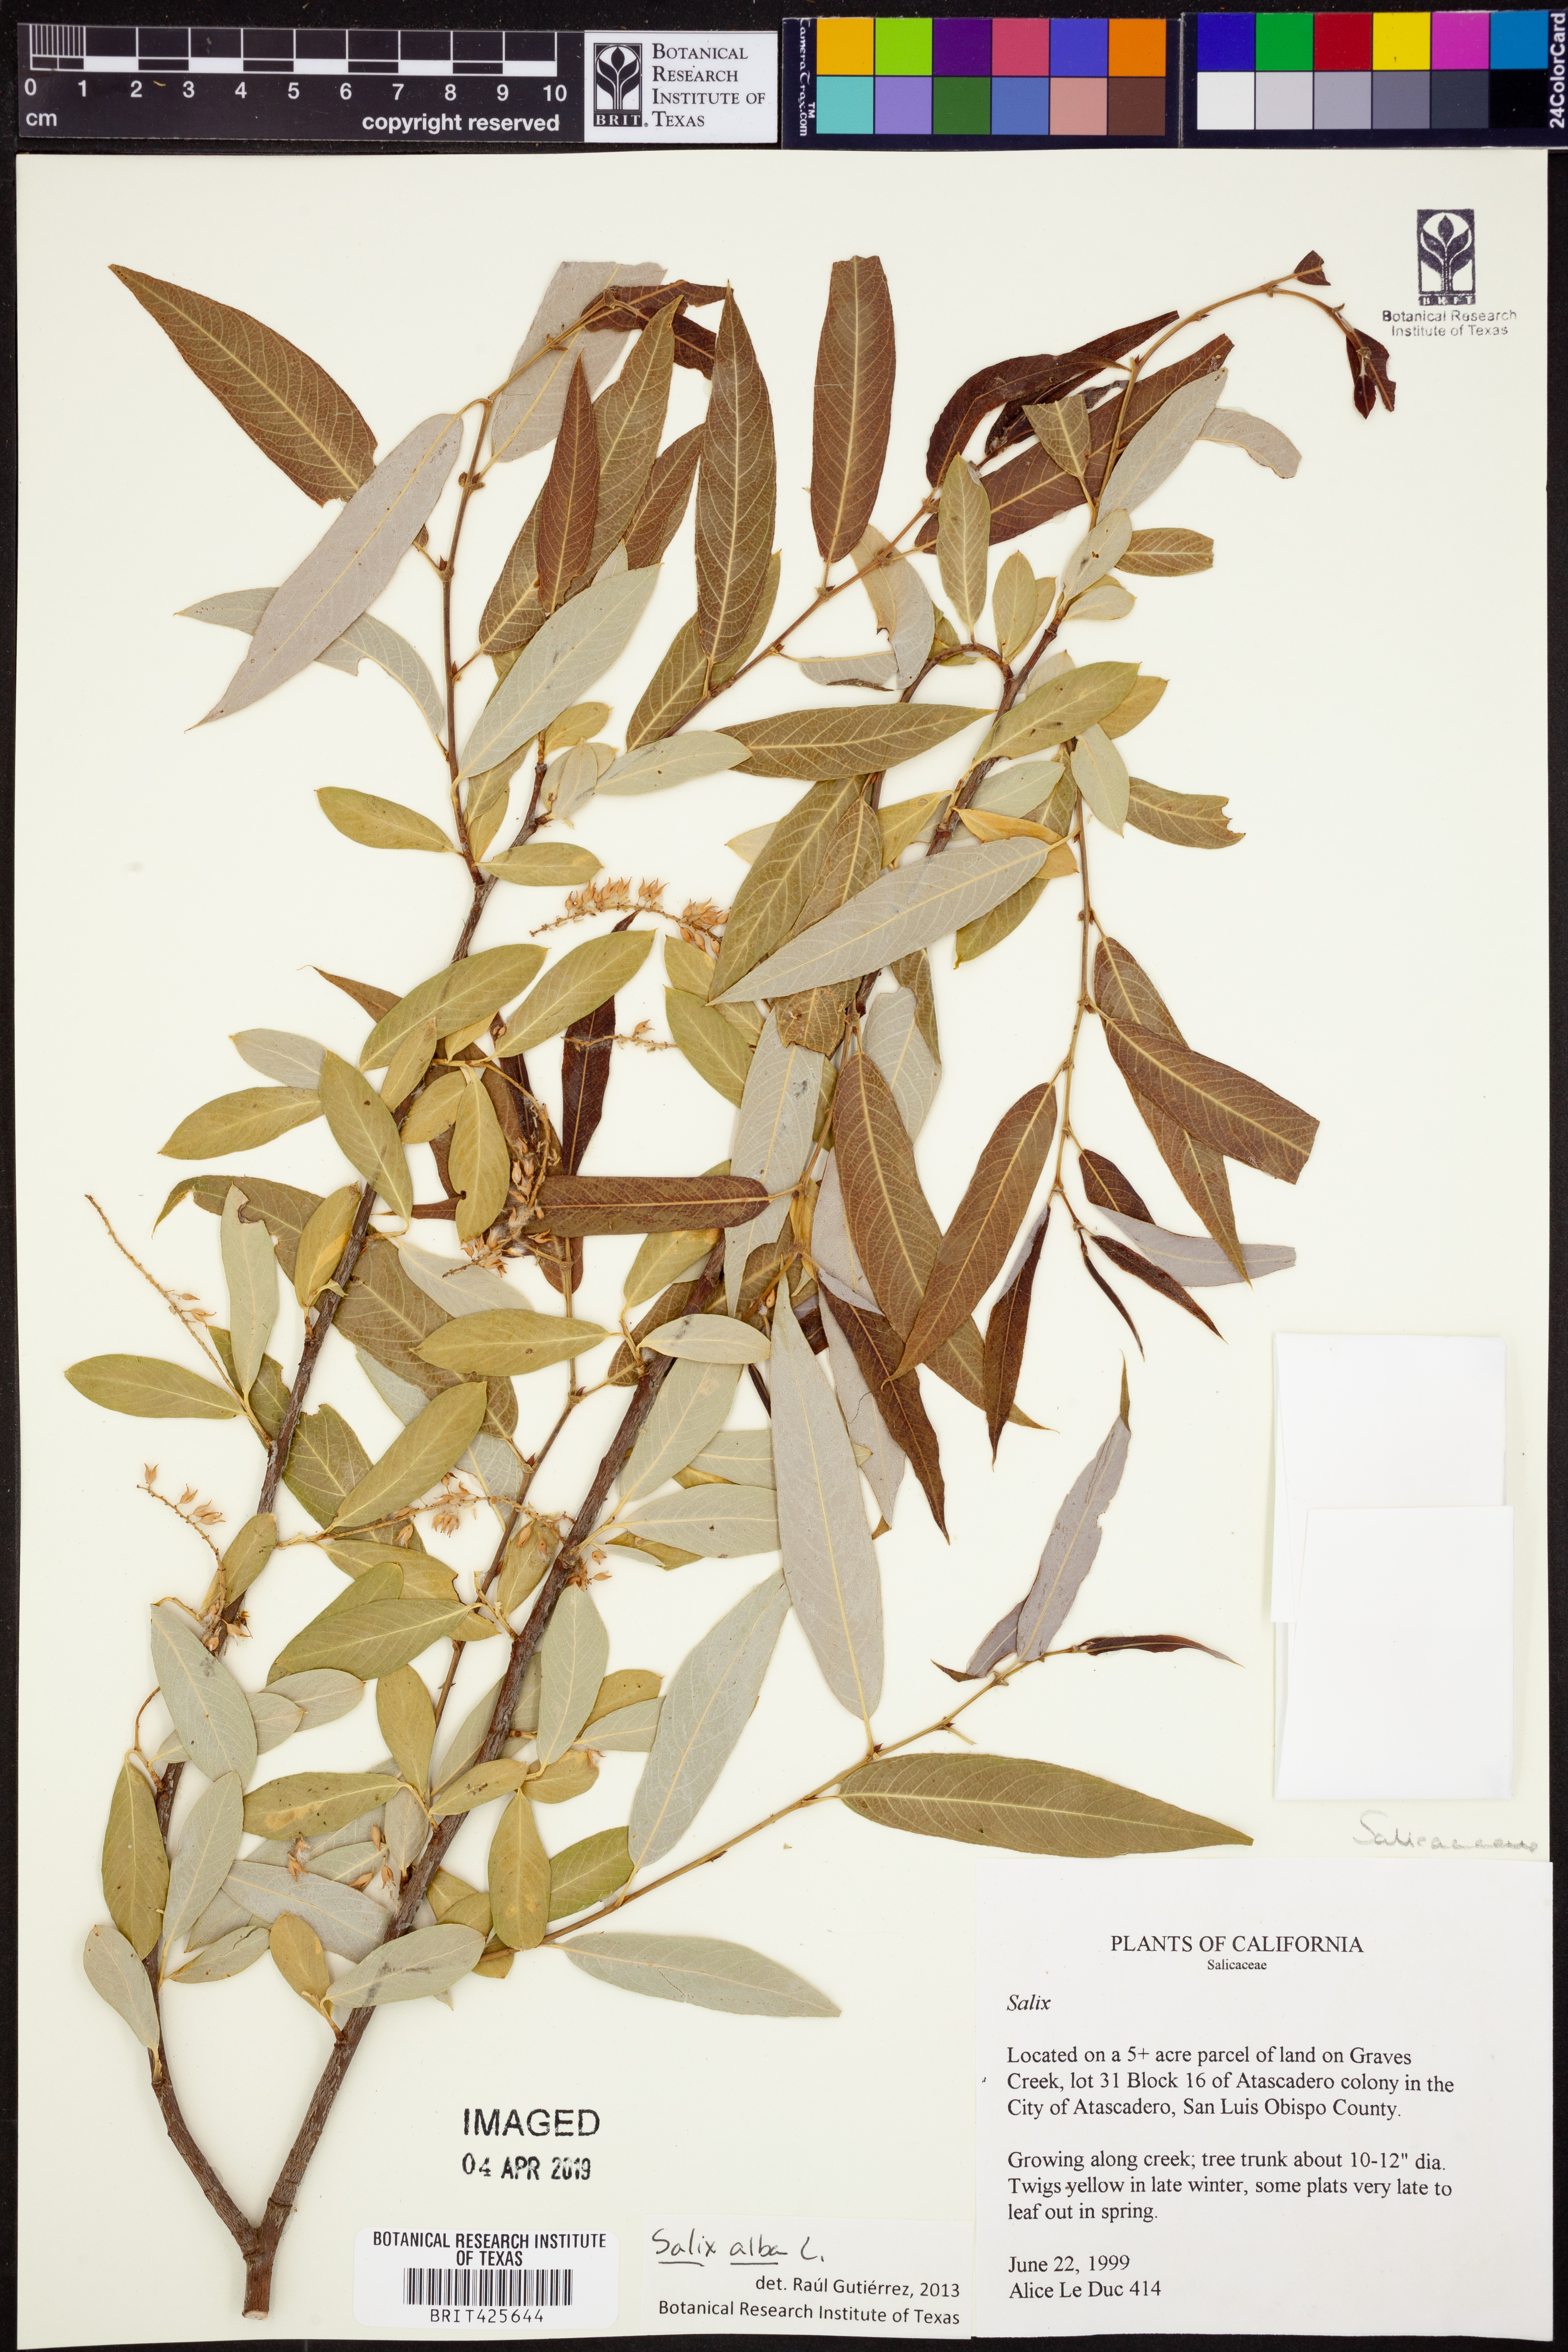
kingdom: Plantae
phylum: Tracheophyta
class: Magnoliopsida
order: Malpighiales
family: Salicaceae
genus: Salix
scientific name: Salix alba
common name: White willow
